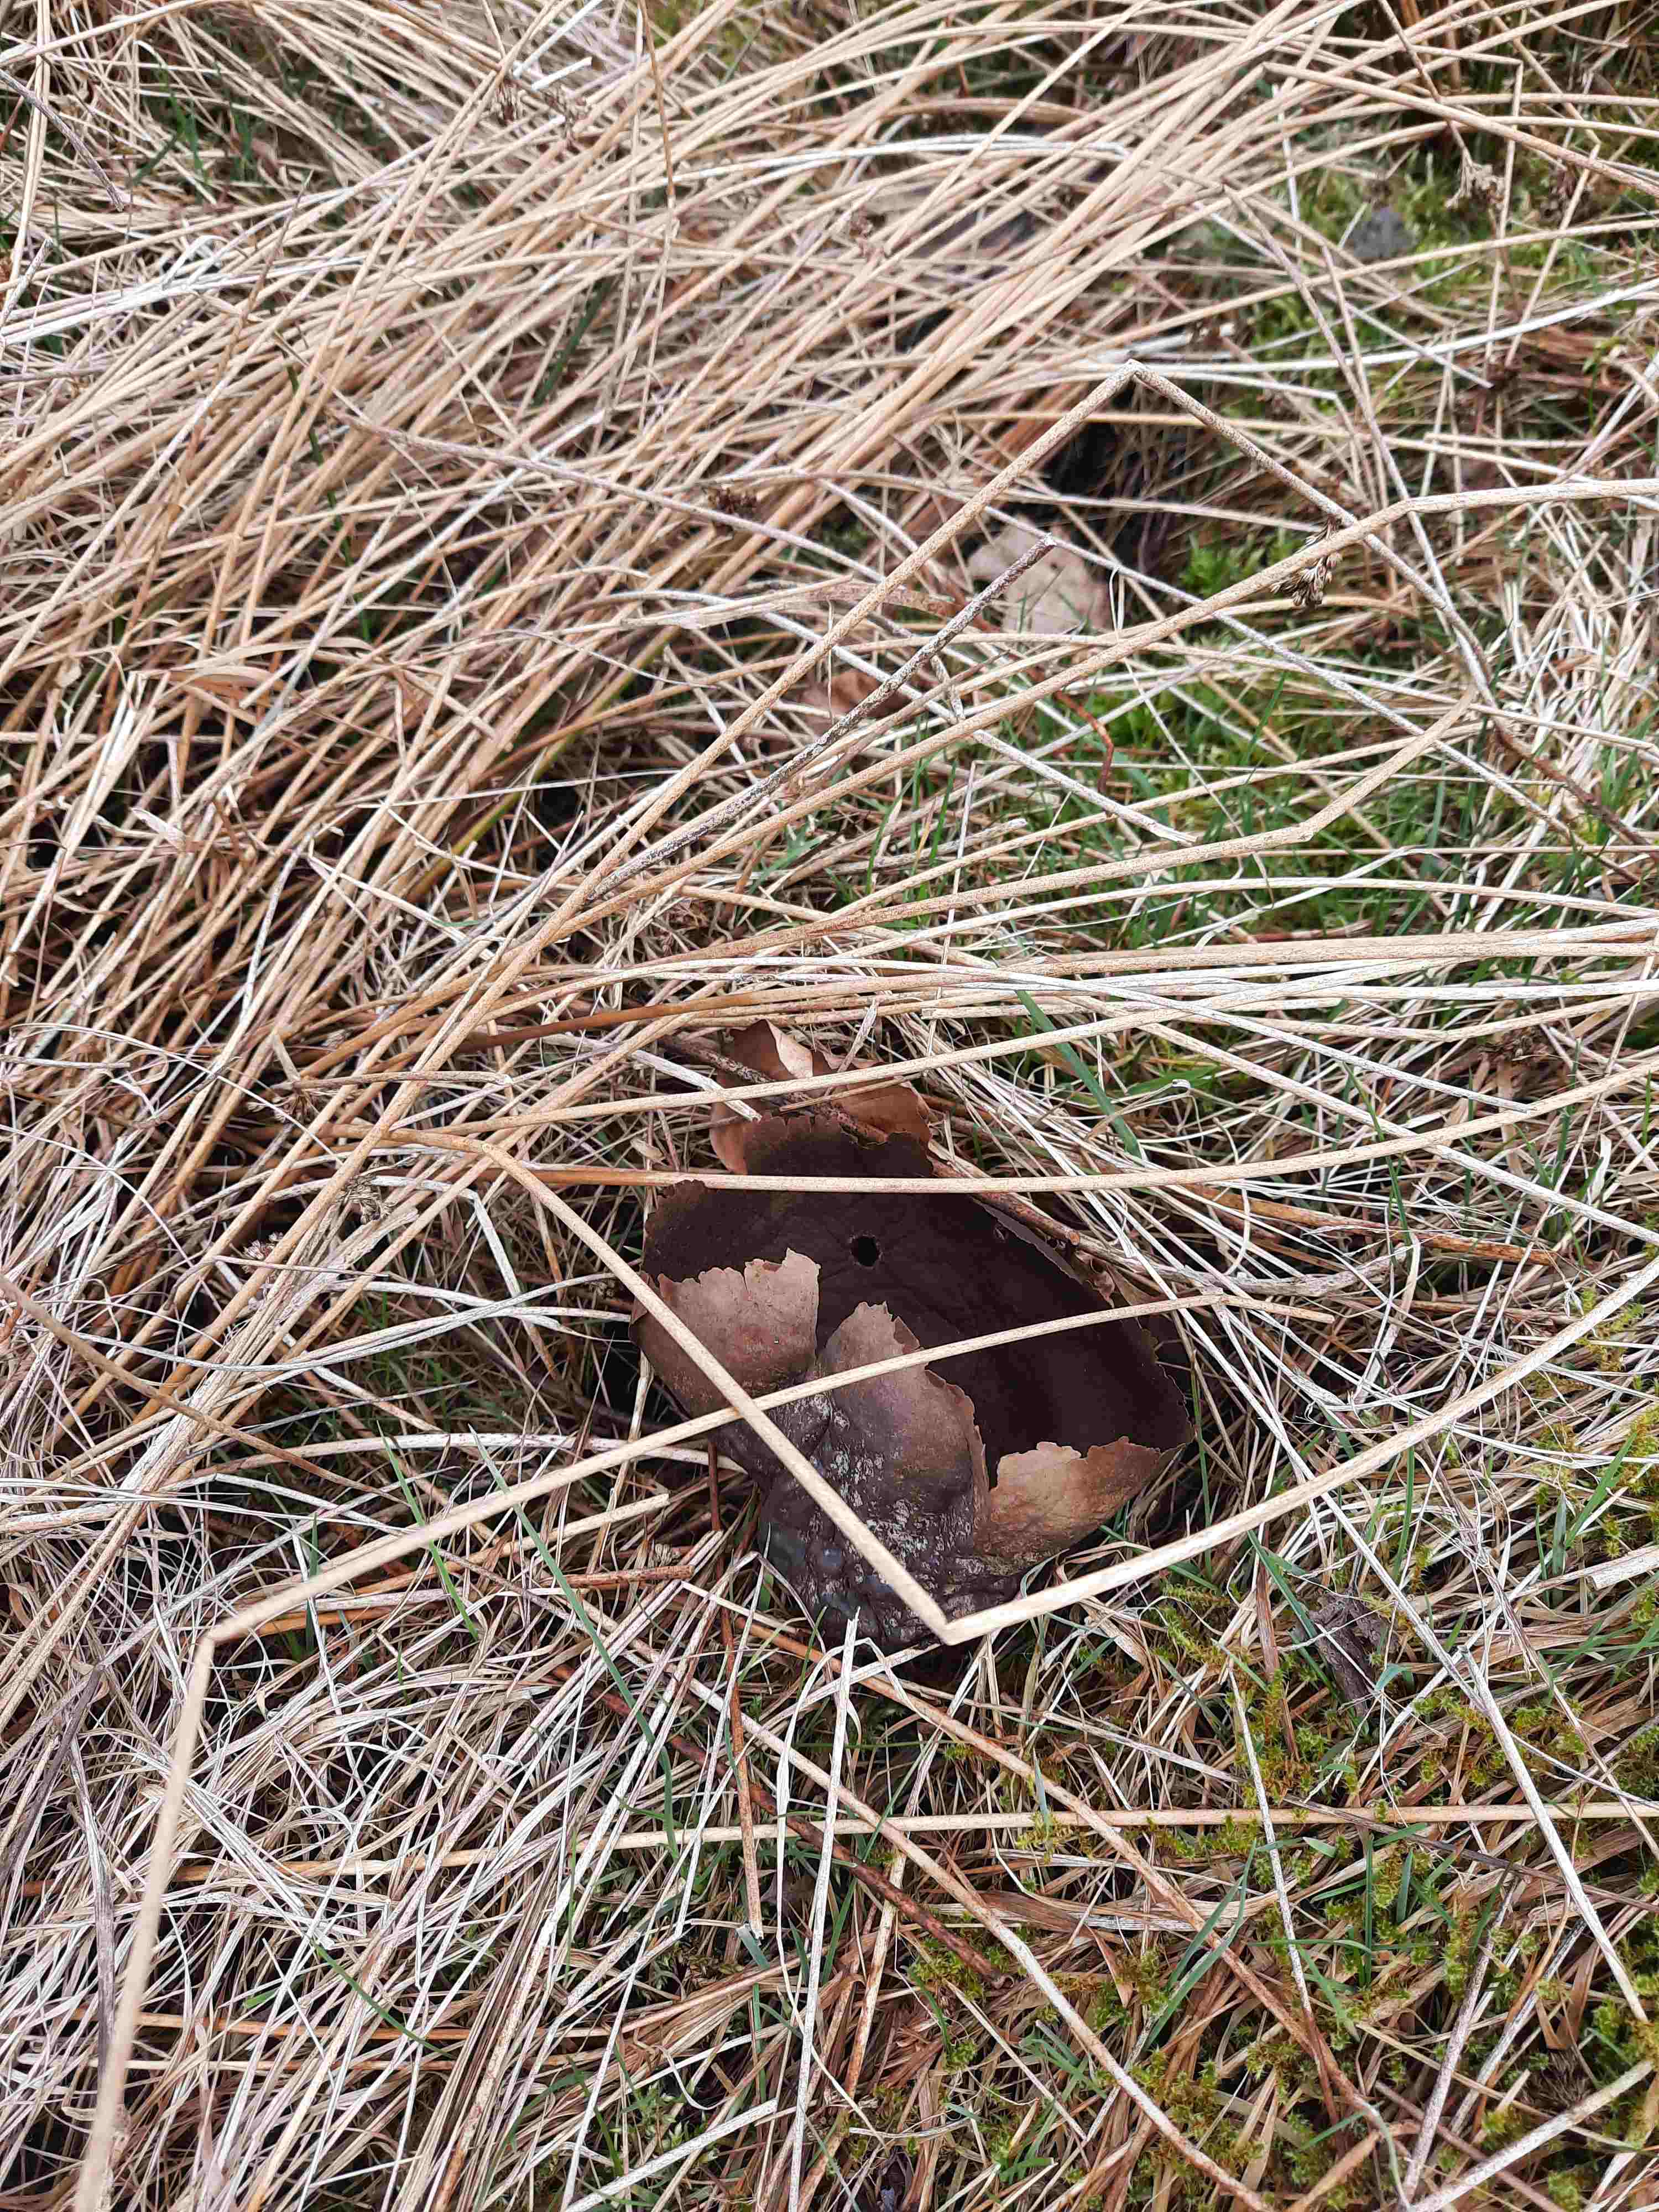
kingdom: Fungi
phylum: Basidiomycota
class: Agaricomycetes
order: Agaricales
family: Lycoperdaceae
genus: Bovistella
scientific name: Bovistella utriformis
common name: skællet støvbold
